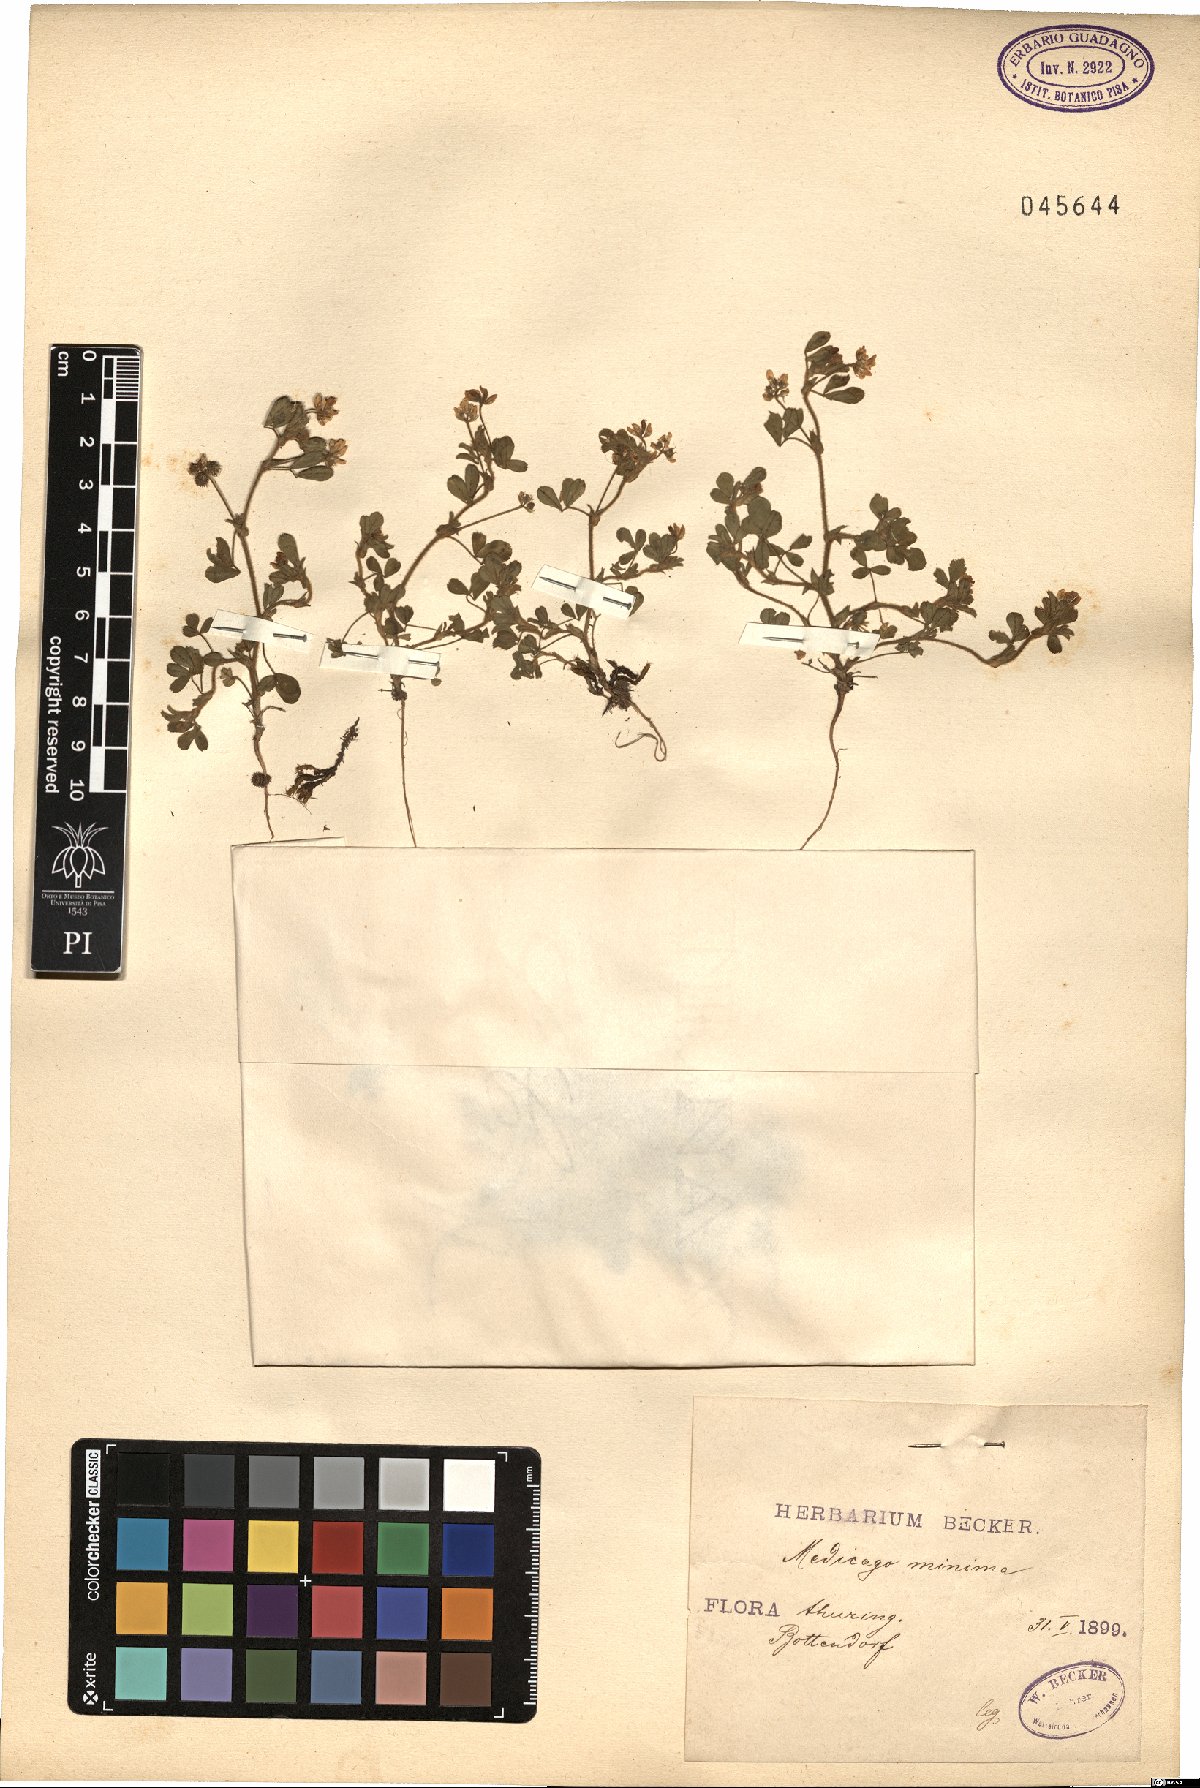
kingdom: Plantae
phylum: Tracheophyta
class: Magnoliopsida
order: Fabales
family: Fabaceae
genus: Medicago
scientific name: Medicago minima
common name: Little bur-clover
